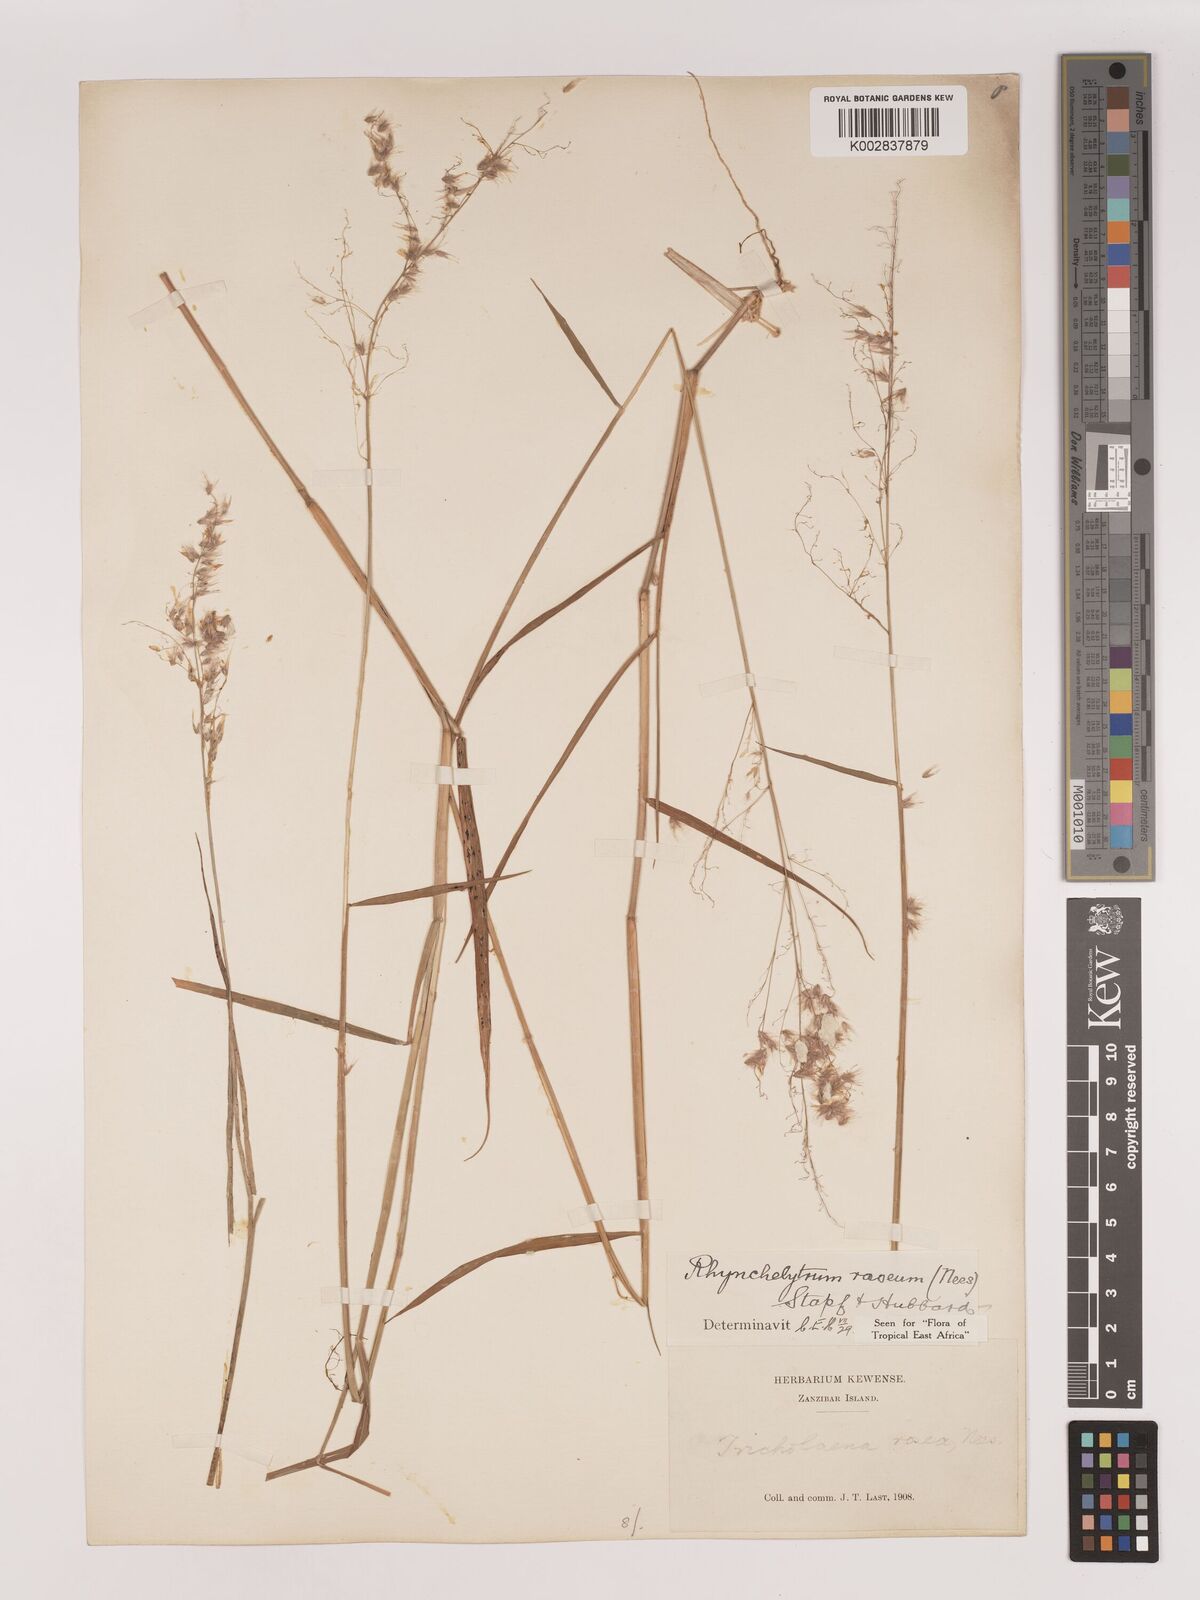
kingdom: Plantae
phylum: Tracheophyta
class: Liliopsida
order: Poales
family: Poaceae
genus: Melinis
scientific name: Melinis repens
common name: Rose natal grass
